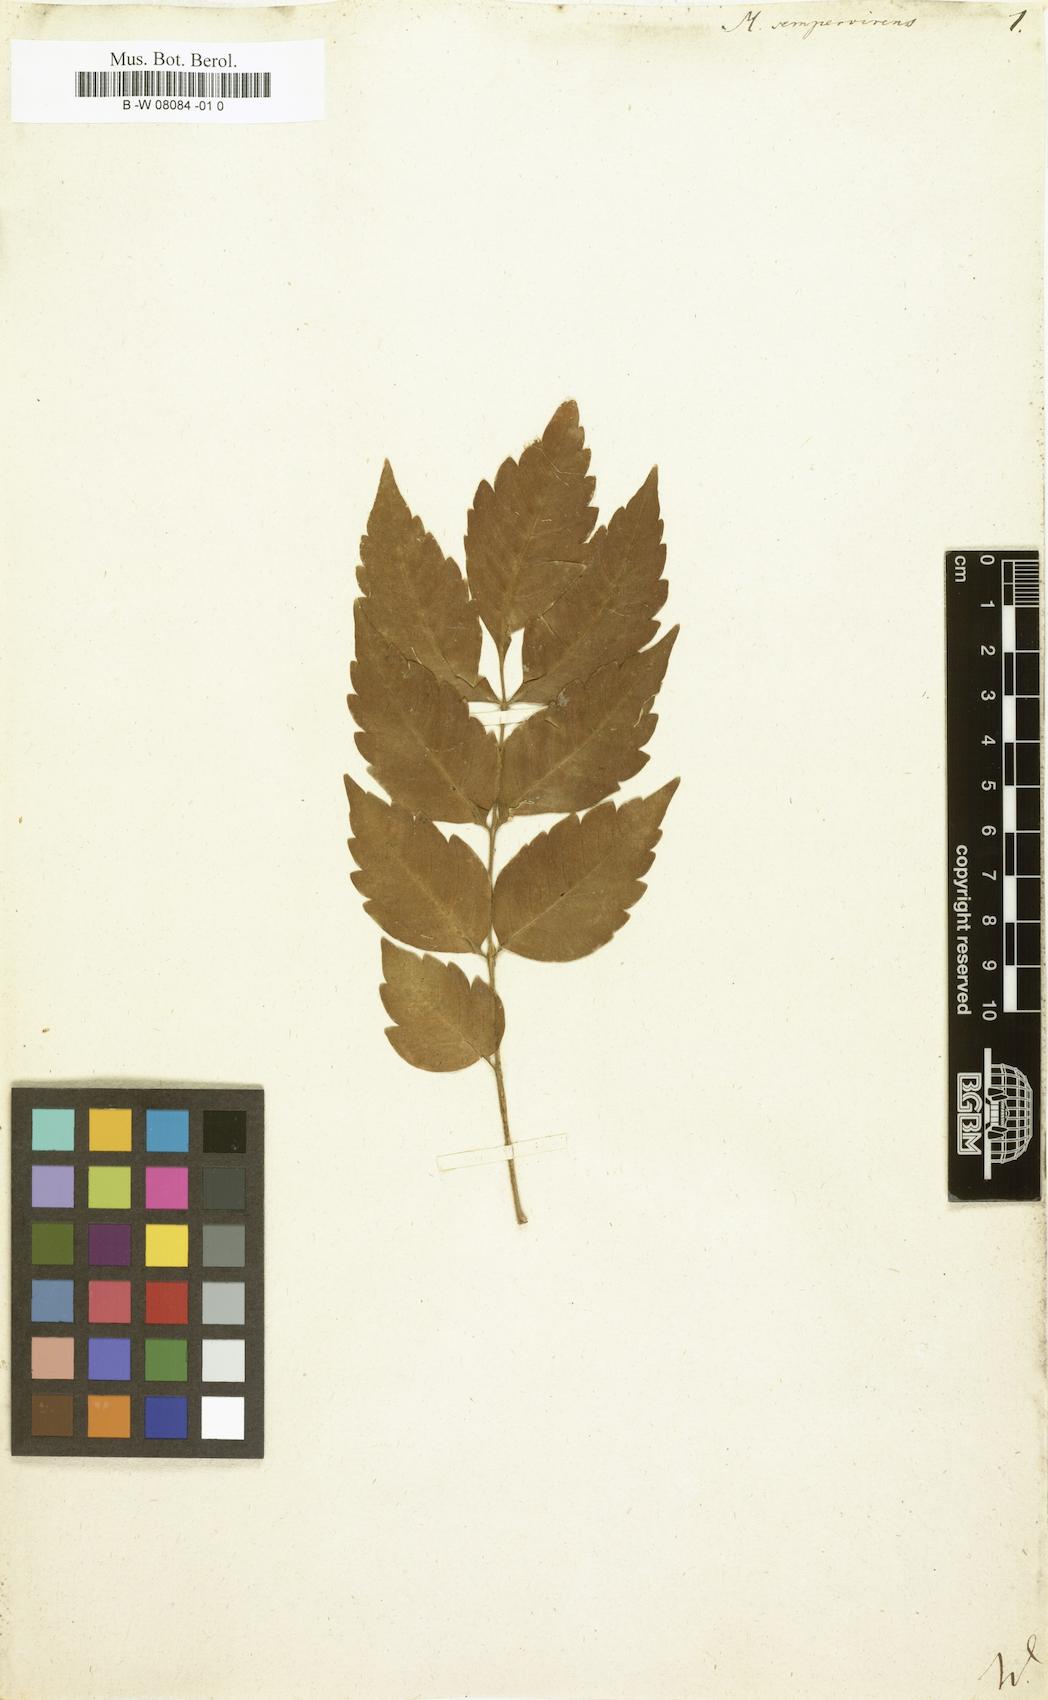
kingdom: Plantae
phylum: Tracheophyta
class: Magnoliopsida
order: Sapindales
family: Meliaceae
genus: Melia
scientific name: Melia azedarach
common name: Chinaberrytree
